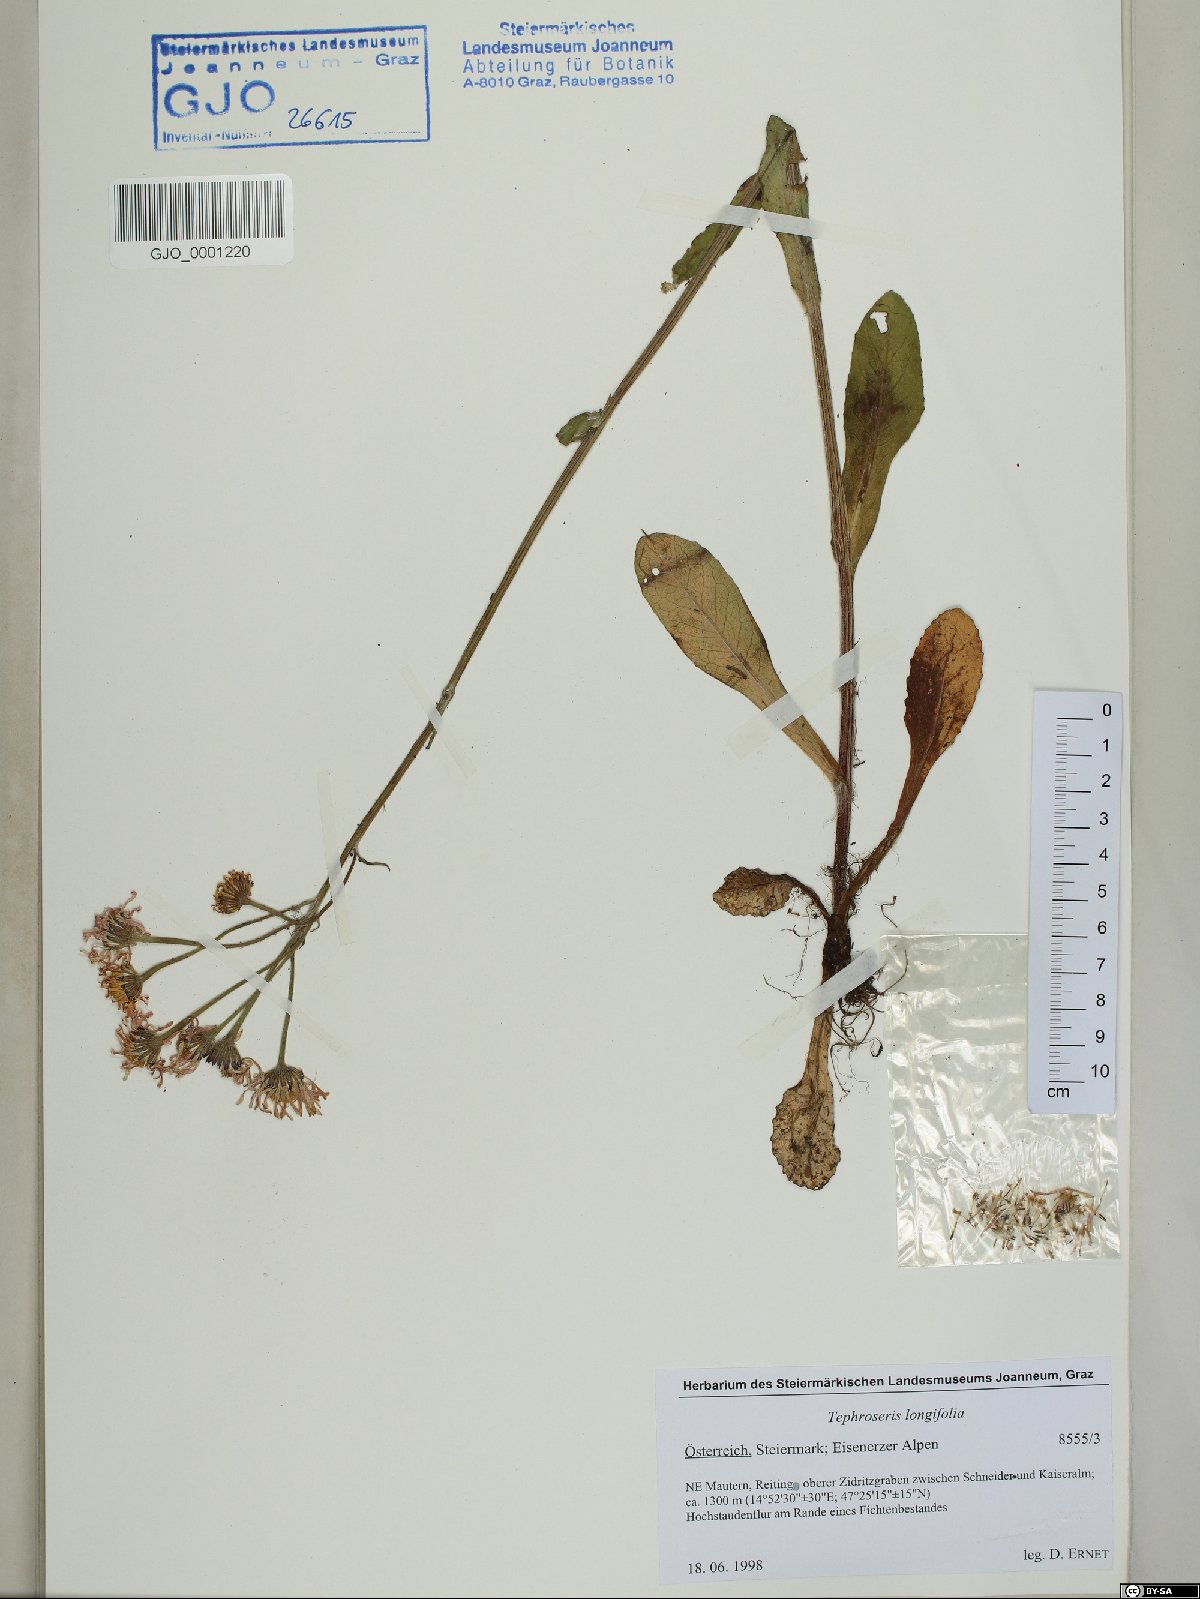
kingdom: Plantae
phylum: Tracheophyta
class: Magnoliopsida
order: Asterales
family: Asteraceae
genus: Tephroseris
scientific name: Tephroseris longifolia
